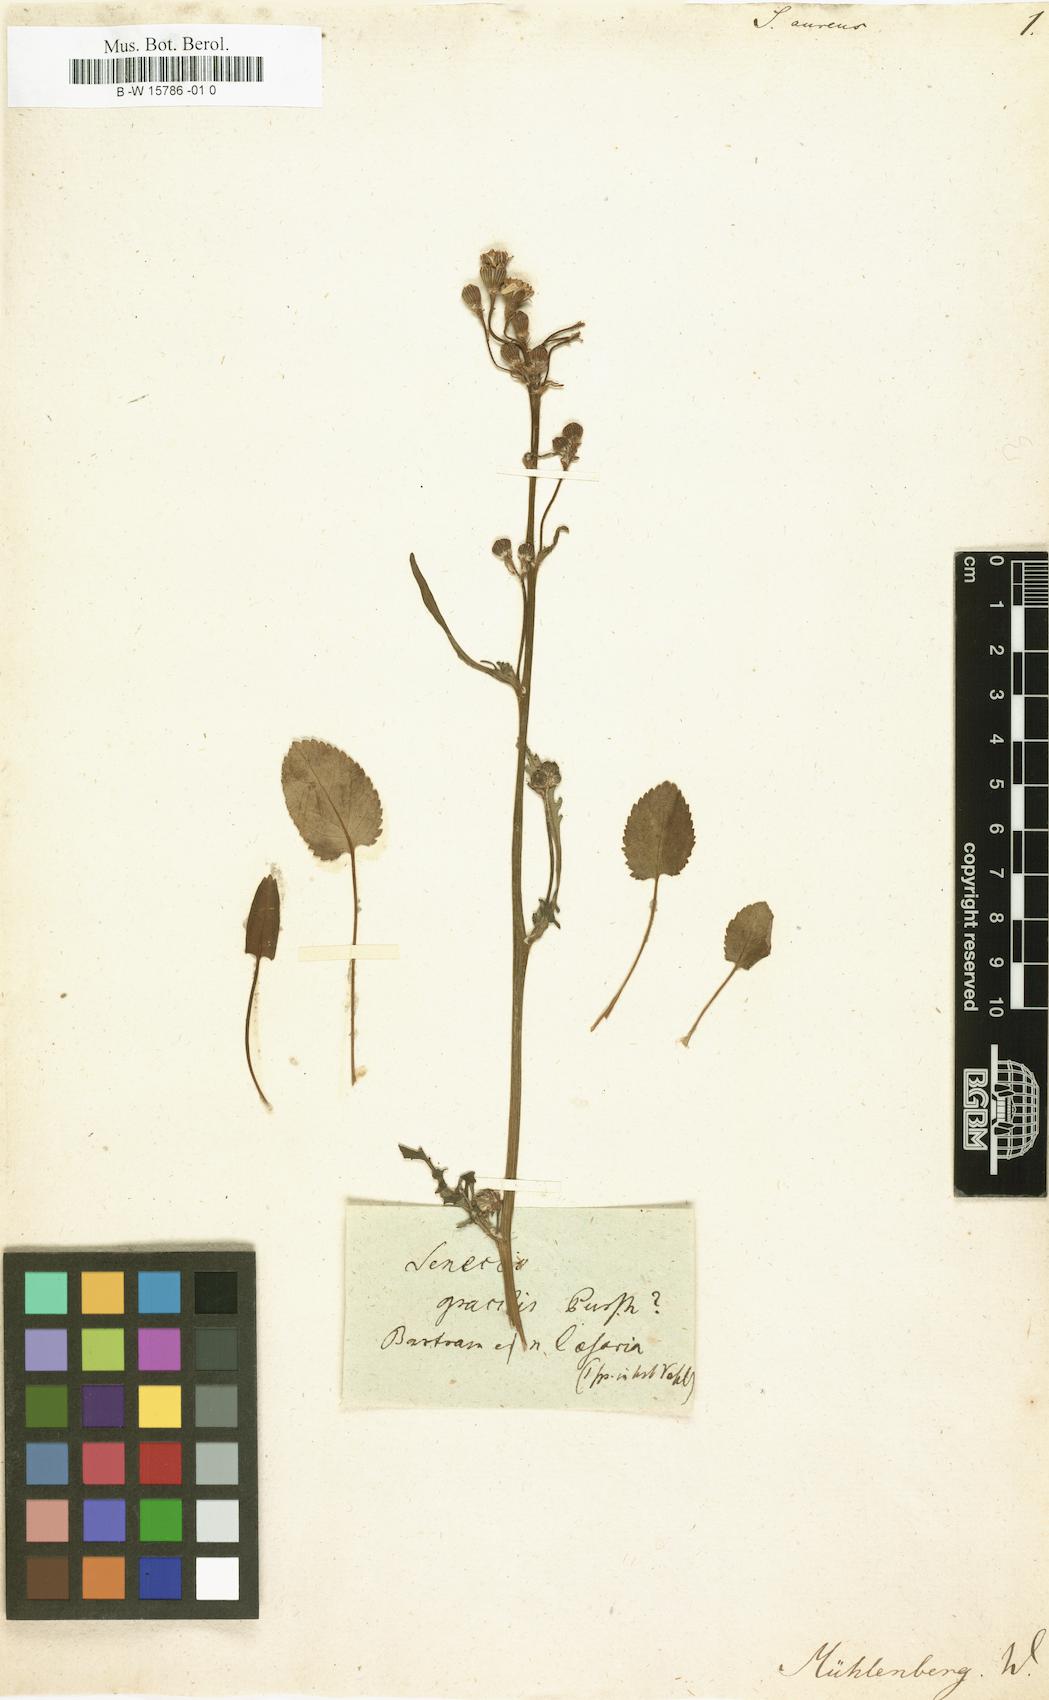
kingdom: Plantae
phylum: Tracheophyta
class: Magnoliopsida
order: Asterales
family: Asteraceae
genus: Senecio
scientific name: Senecio aureus
